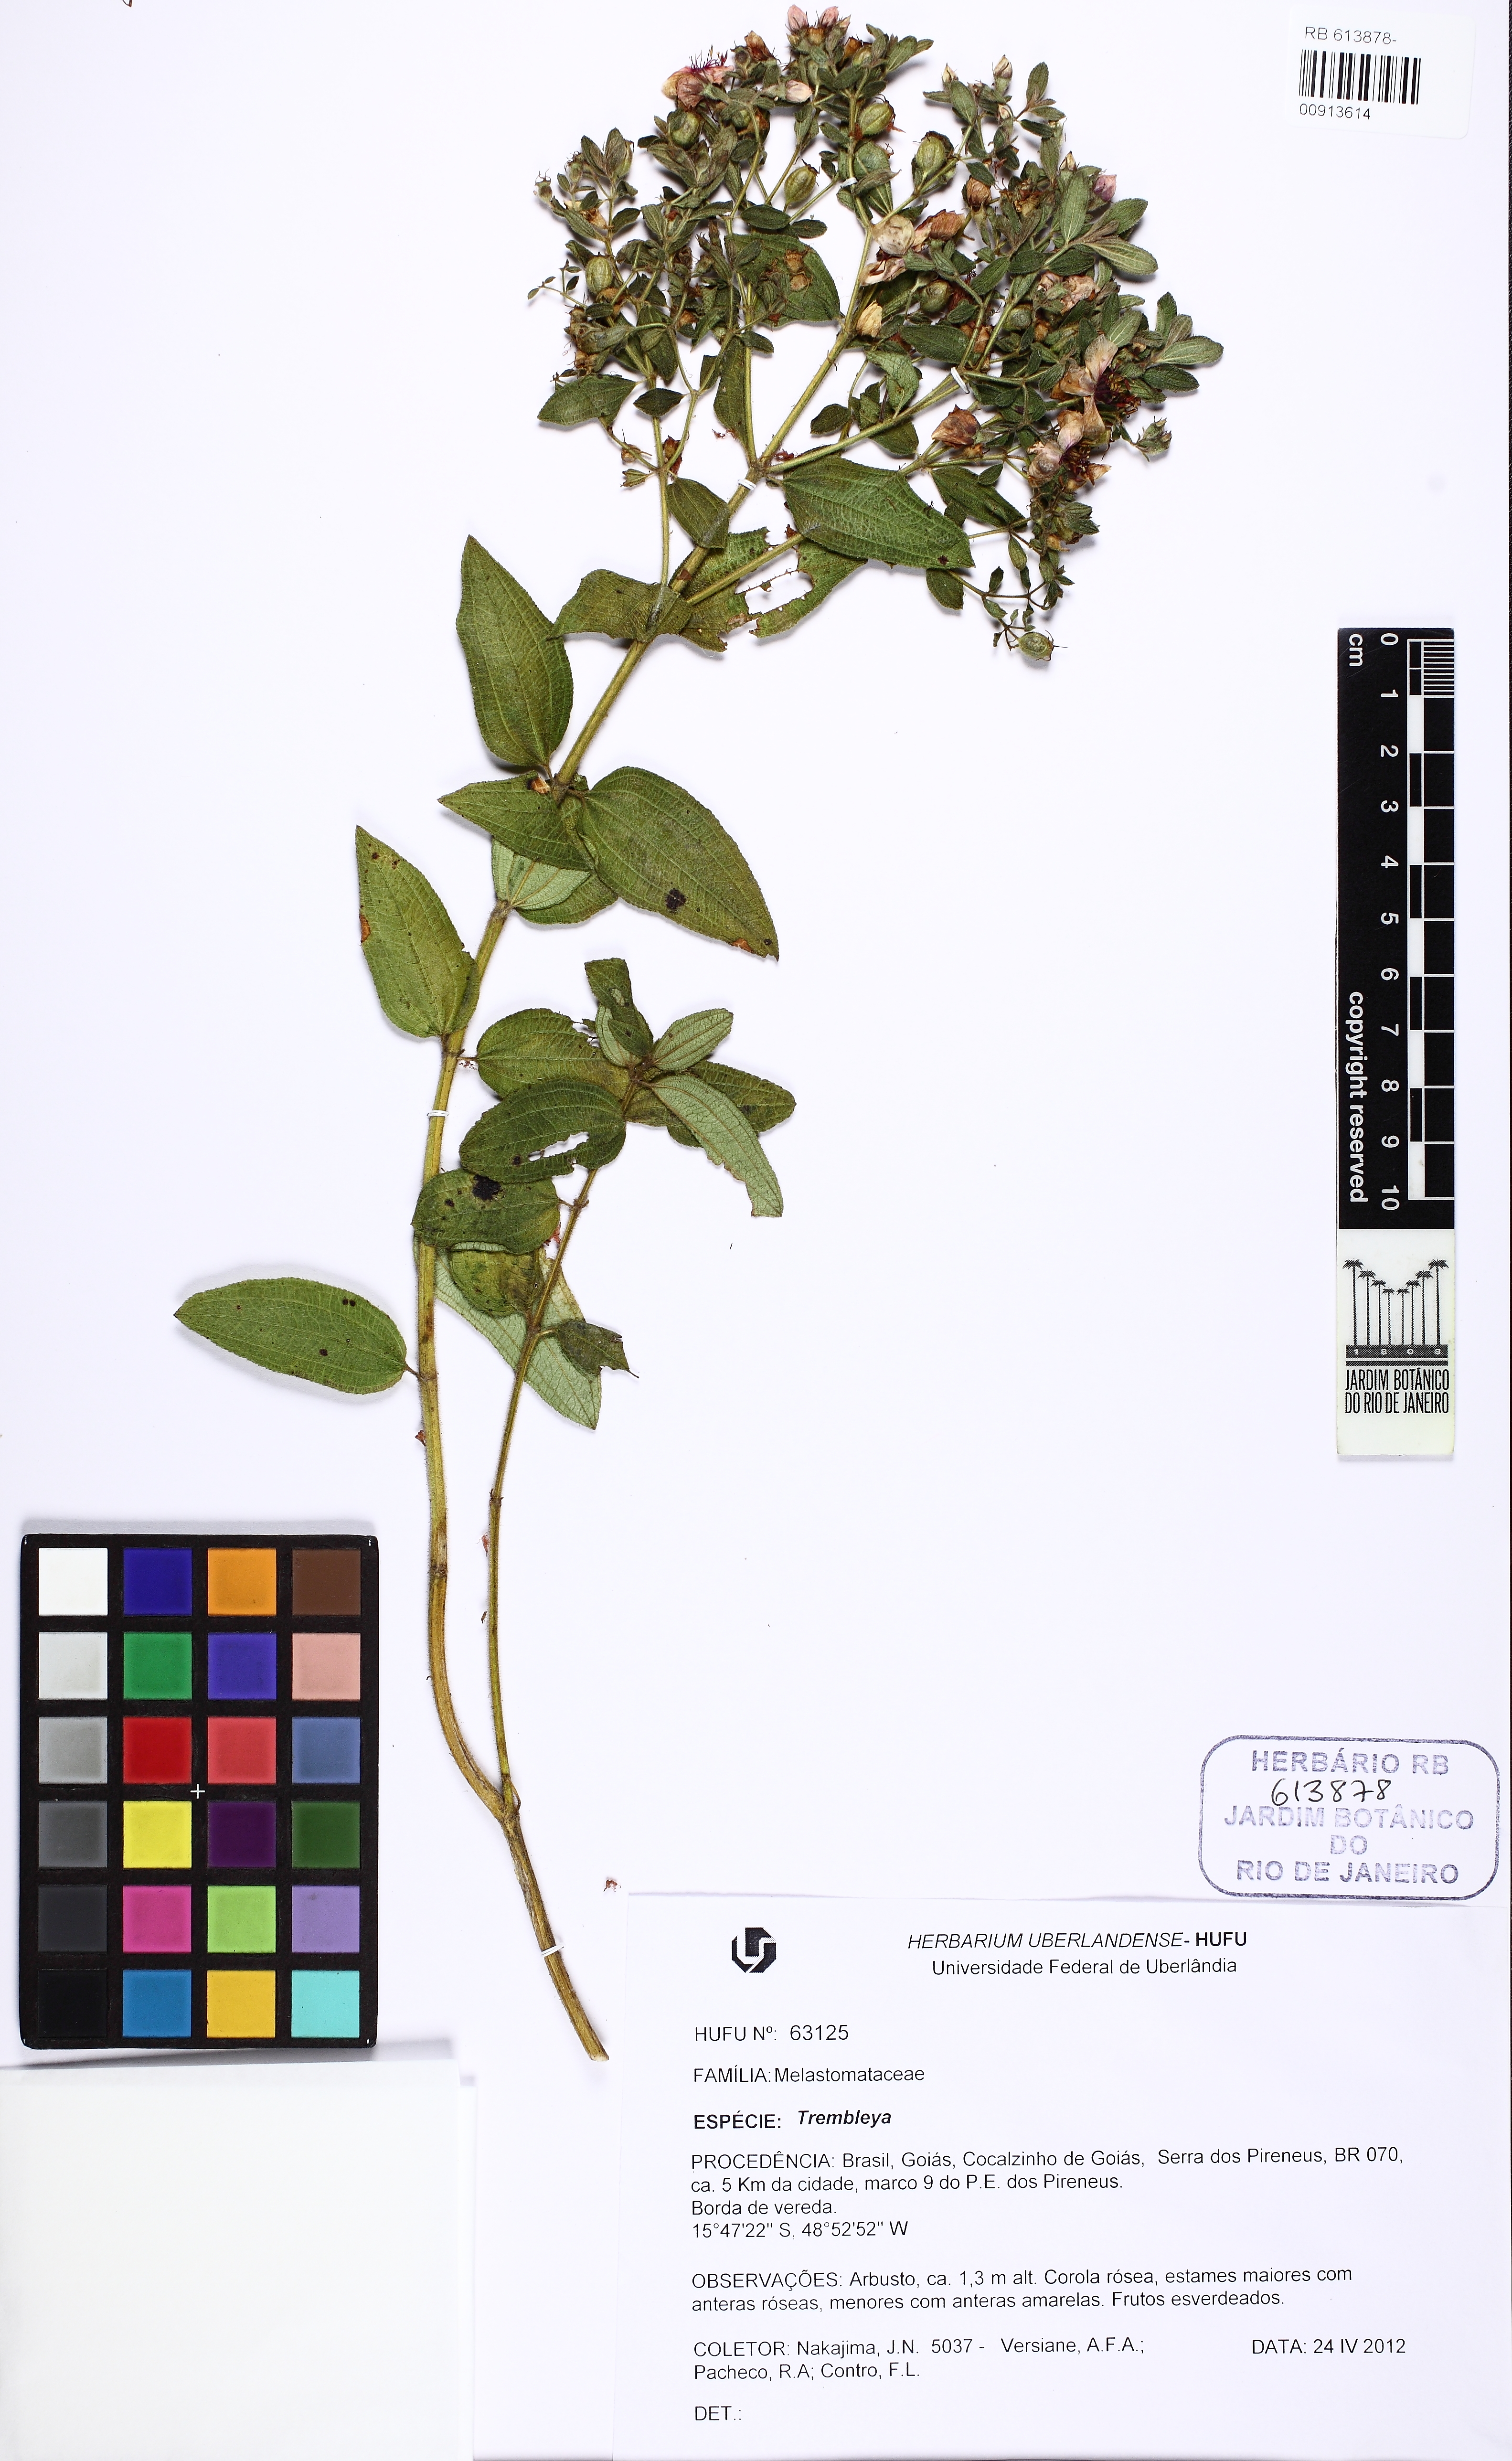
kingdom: Plantae
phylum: Tracheophyta
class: Magnoliopsida
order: Myrtales
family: Melastomataceae
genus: Microlicia
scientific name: Microlicia neopyrenaica
